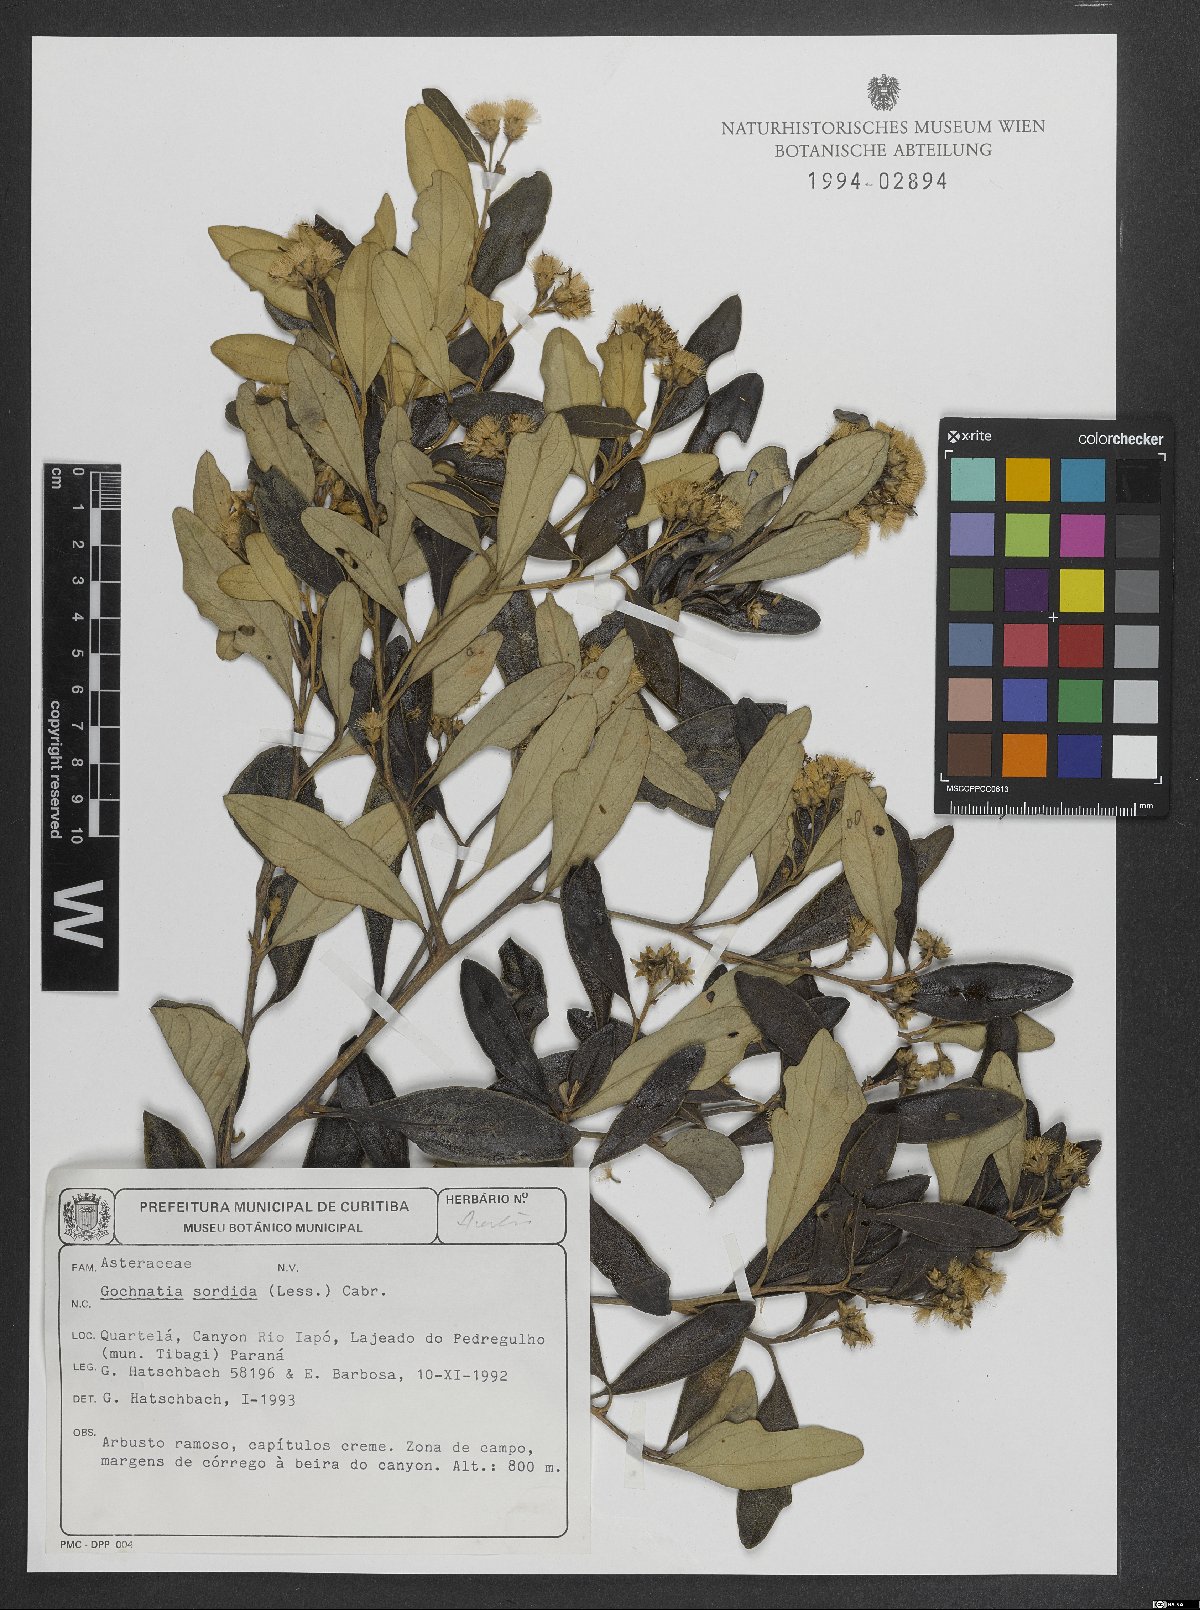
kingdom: Plantae
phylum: Tracheophyta
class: Magnoliopsida
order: Asterales
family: Asteraceae
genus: Moquiniastrum
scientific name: Moquiniastrum sordidum
